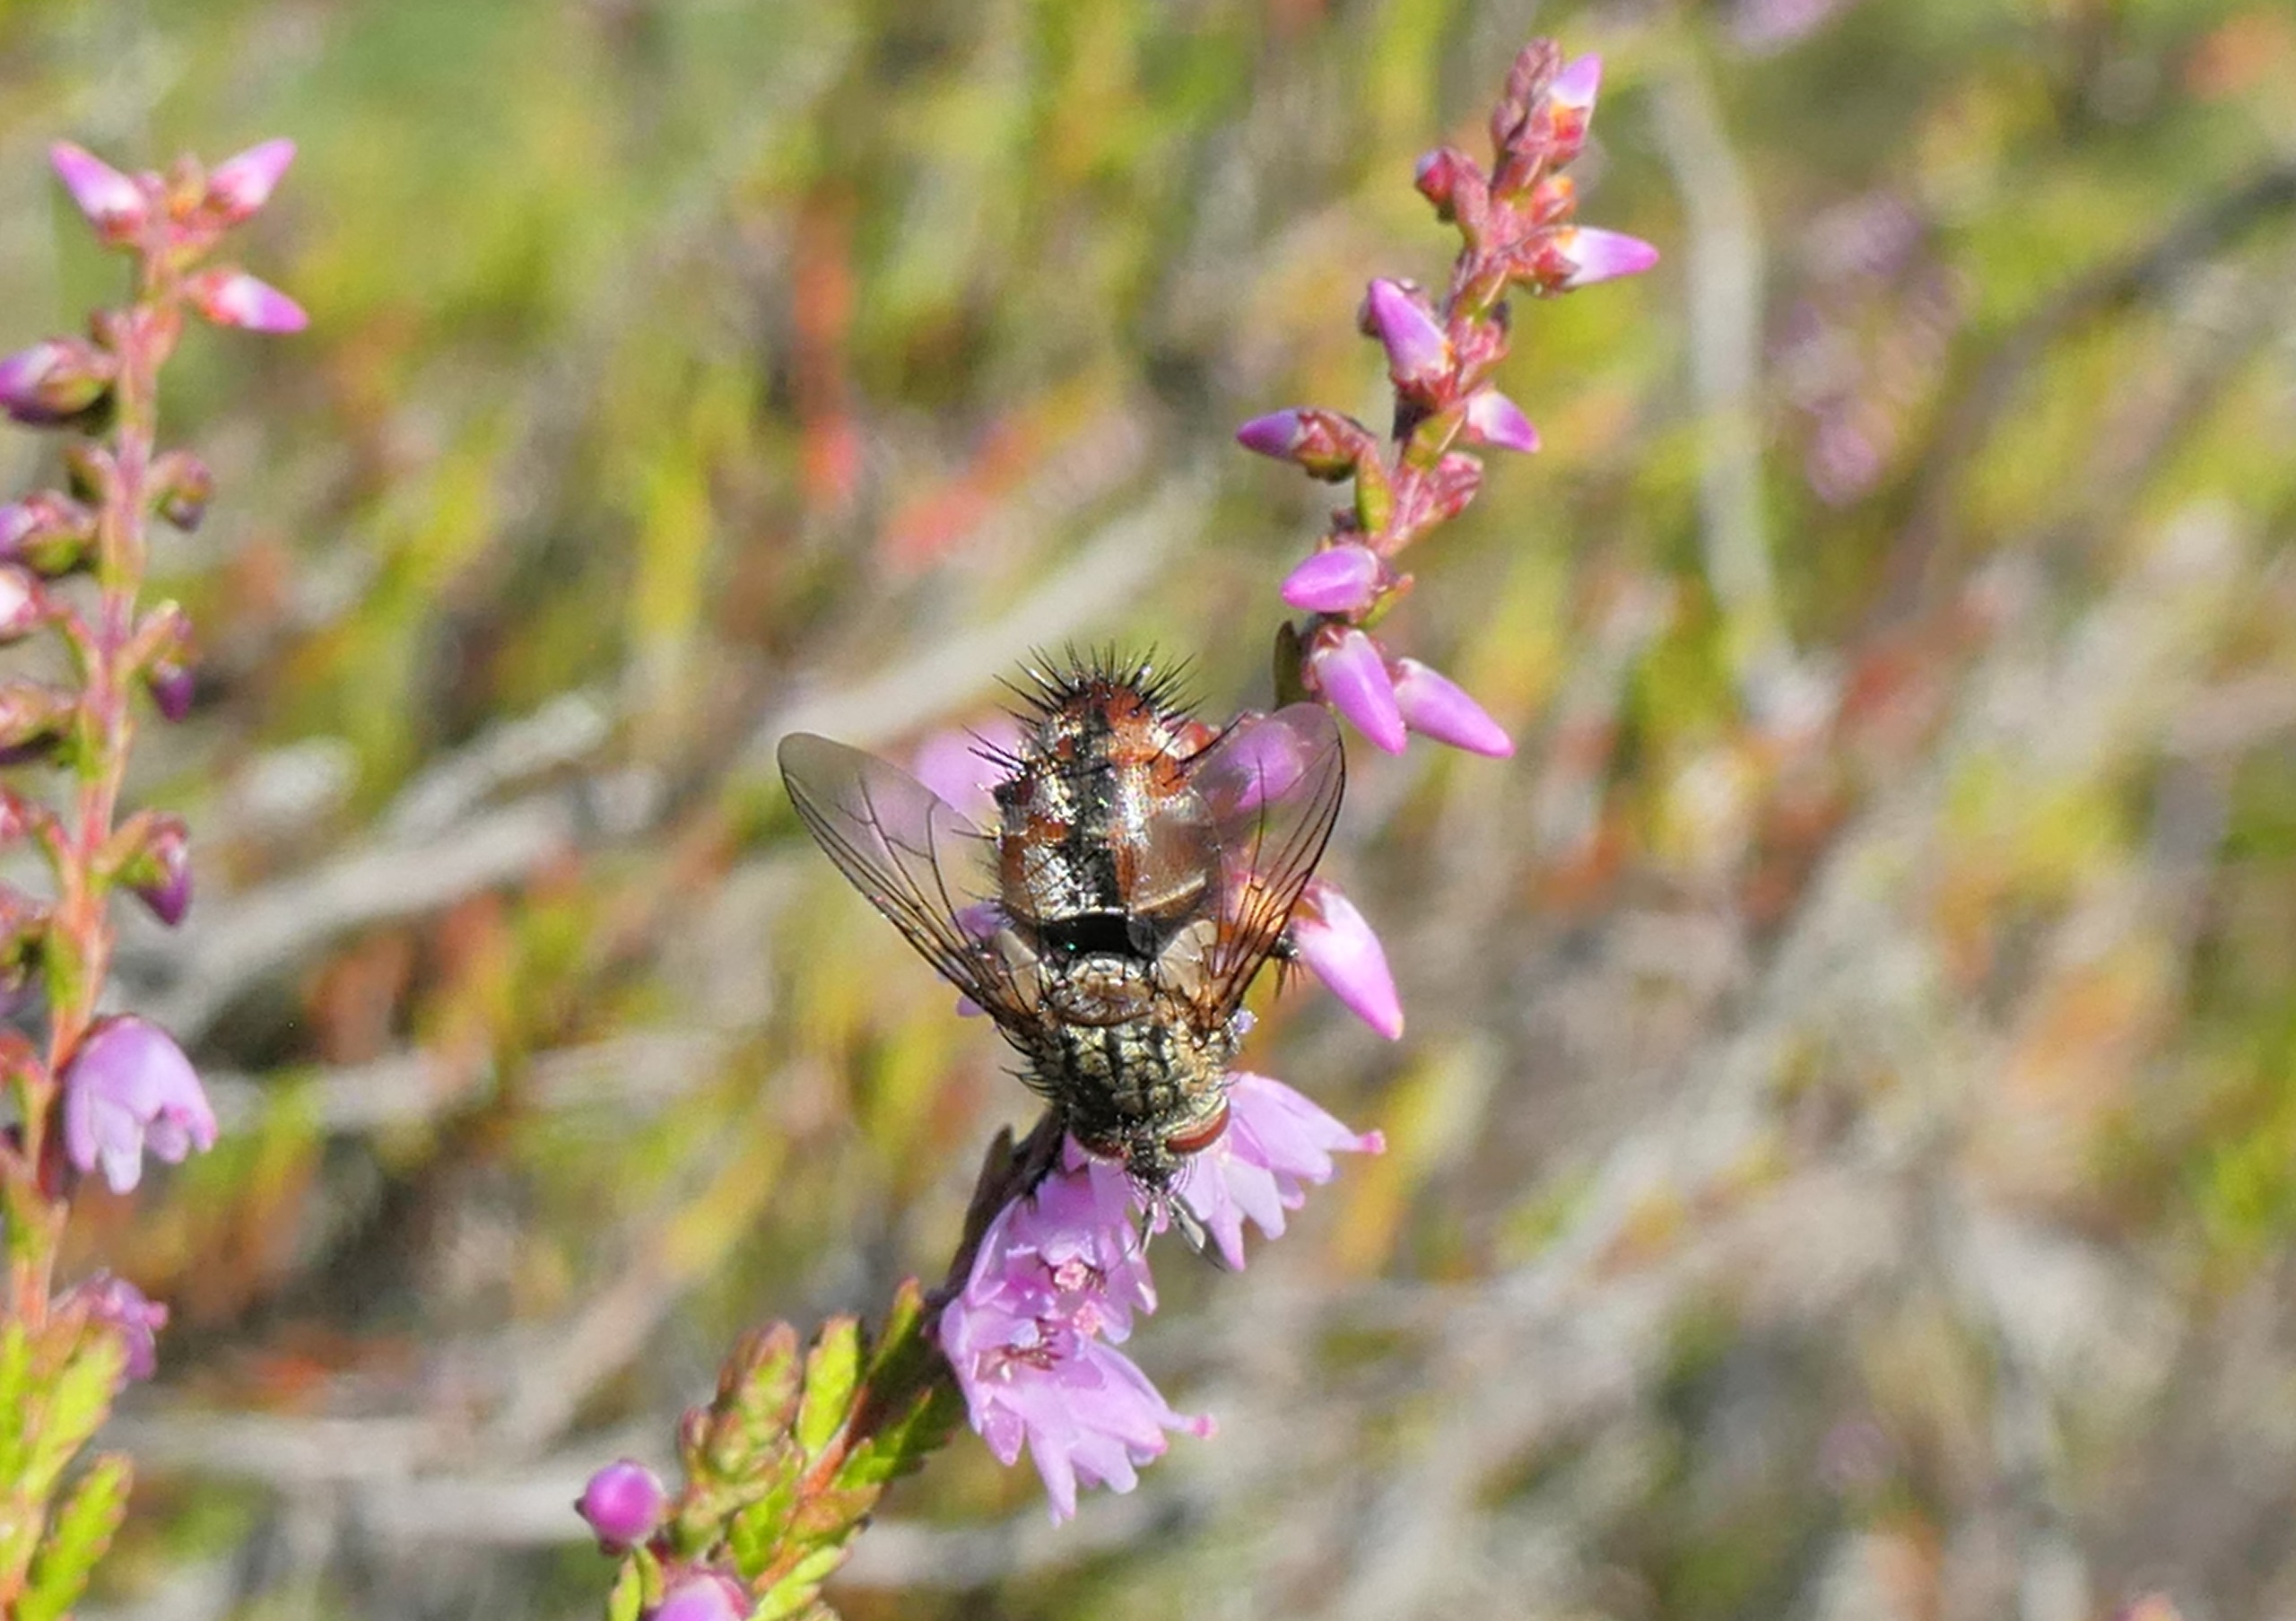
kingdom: Animalia
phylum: Arthropoda
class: Insecta
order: Diptera
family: Tachinidae
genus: Linnaemya
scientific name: Linnaemya vulpina
